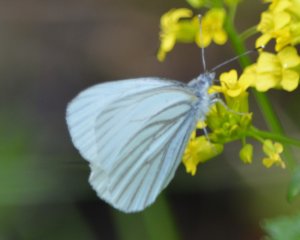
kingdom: Animalia
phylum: Arthropoda
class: Insecta
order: Lepidoptera
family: Pieridae
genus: Pieris
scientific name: Pieris oleracea
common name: Mustard White
